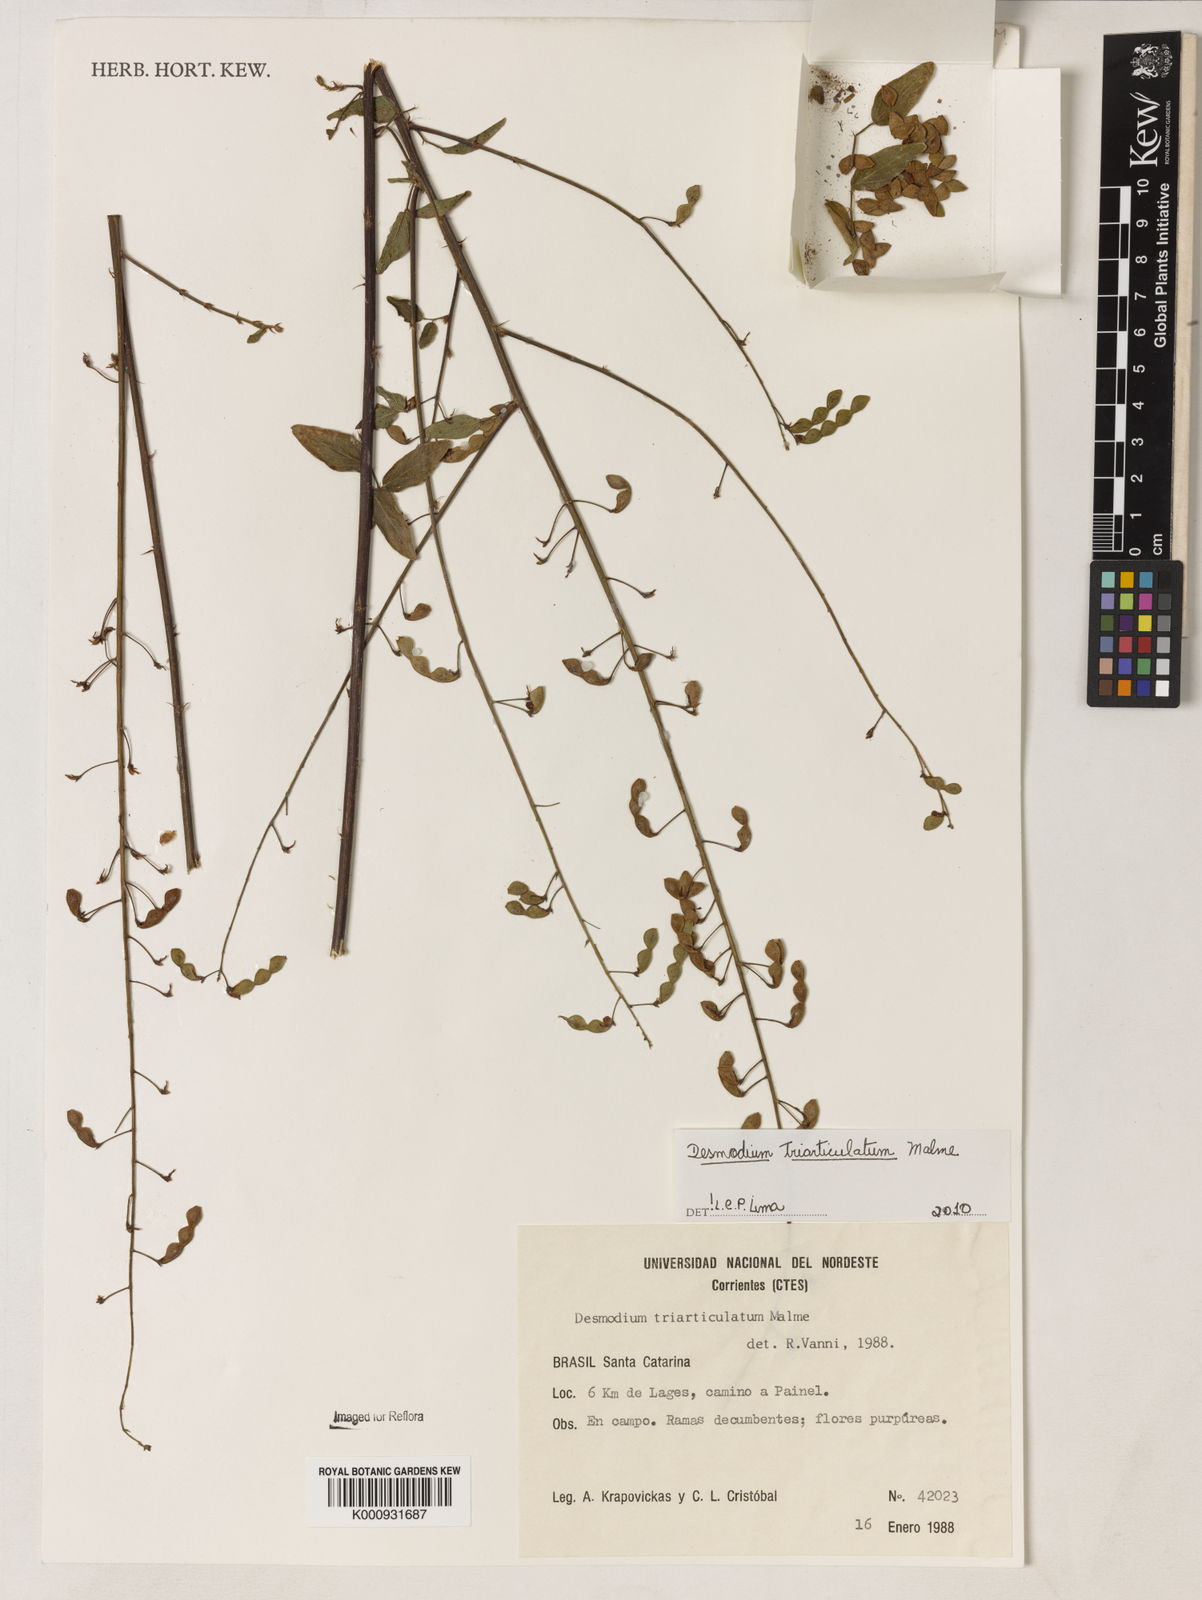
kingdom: Plantae
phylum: Tracheophyta
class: Magnoliopsida
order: Fabales
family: Fabaceae
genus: Desmodium
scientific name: Desmodium triarticulatum
